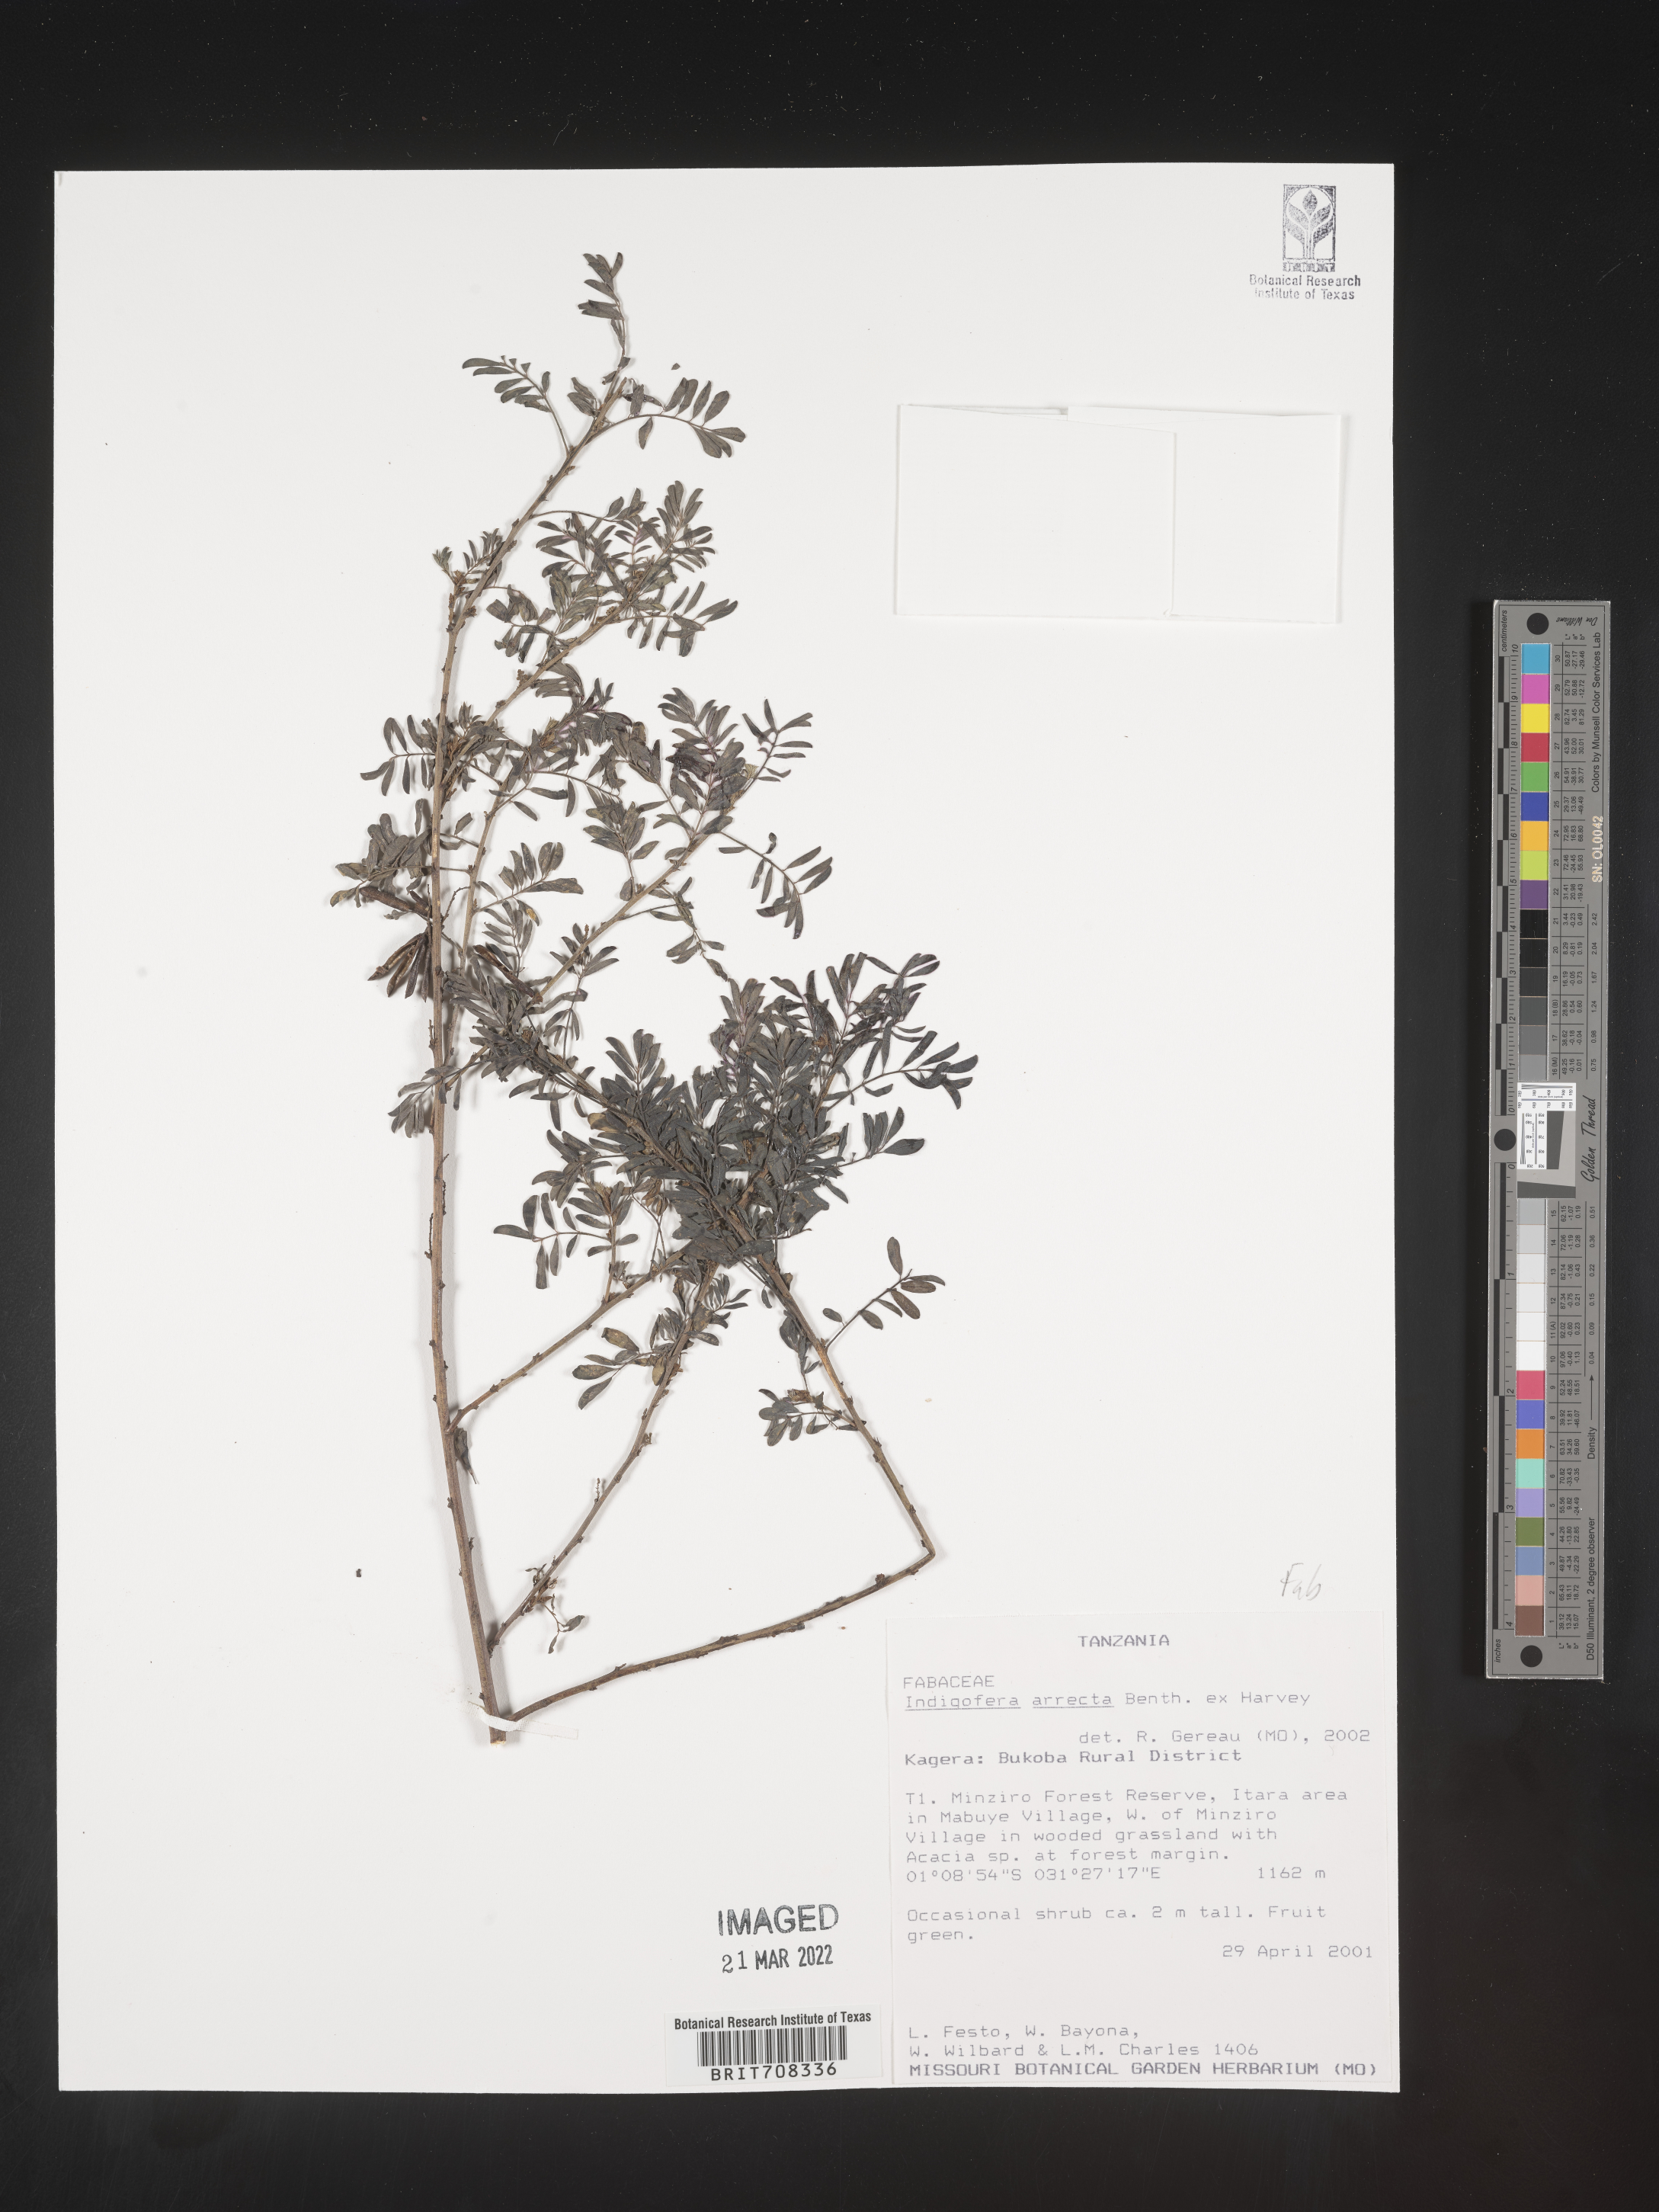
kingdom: Plantae
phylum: Tracheophyta
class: Magnoliopsida
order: Fabales
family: Fabaceae
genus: Indigofera
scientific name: Indigofera
